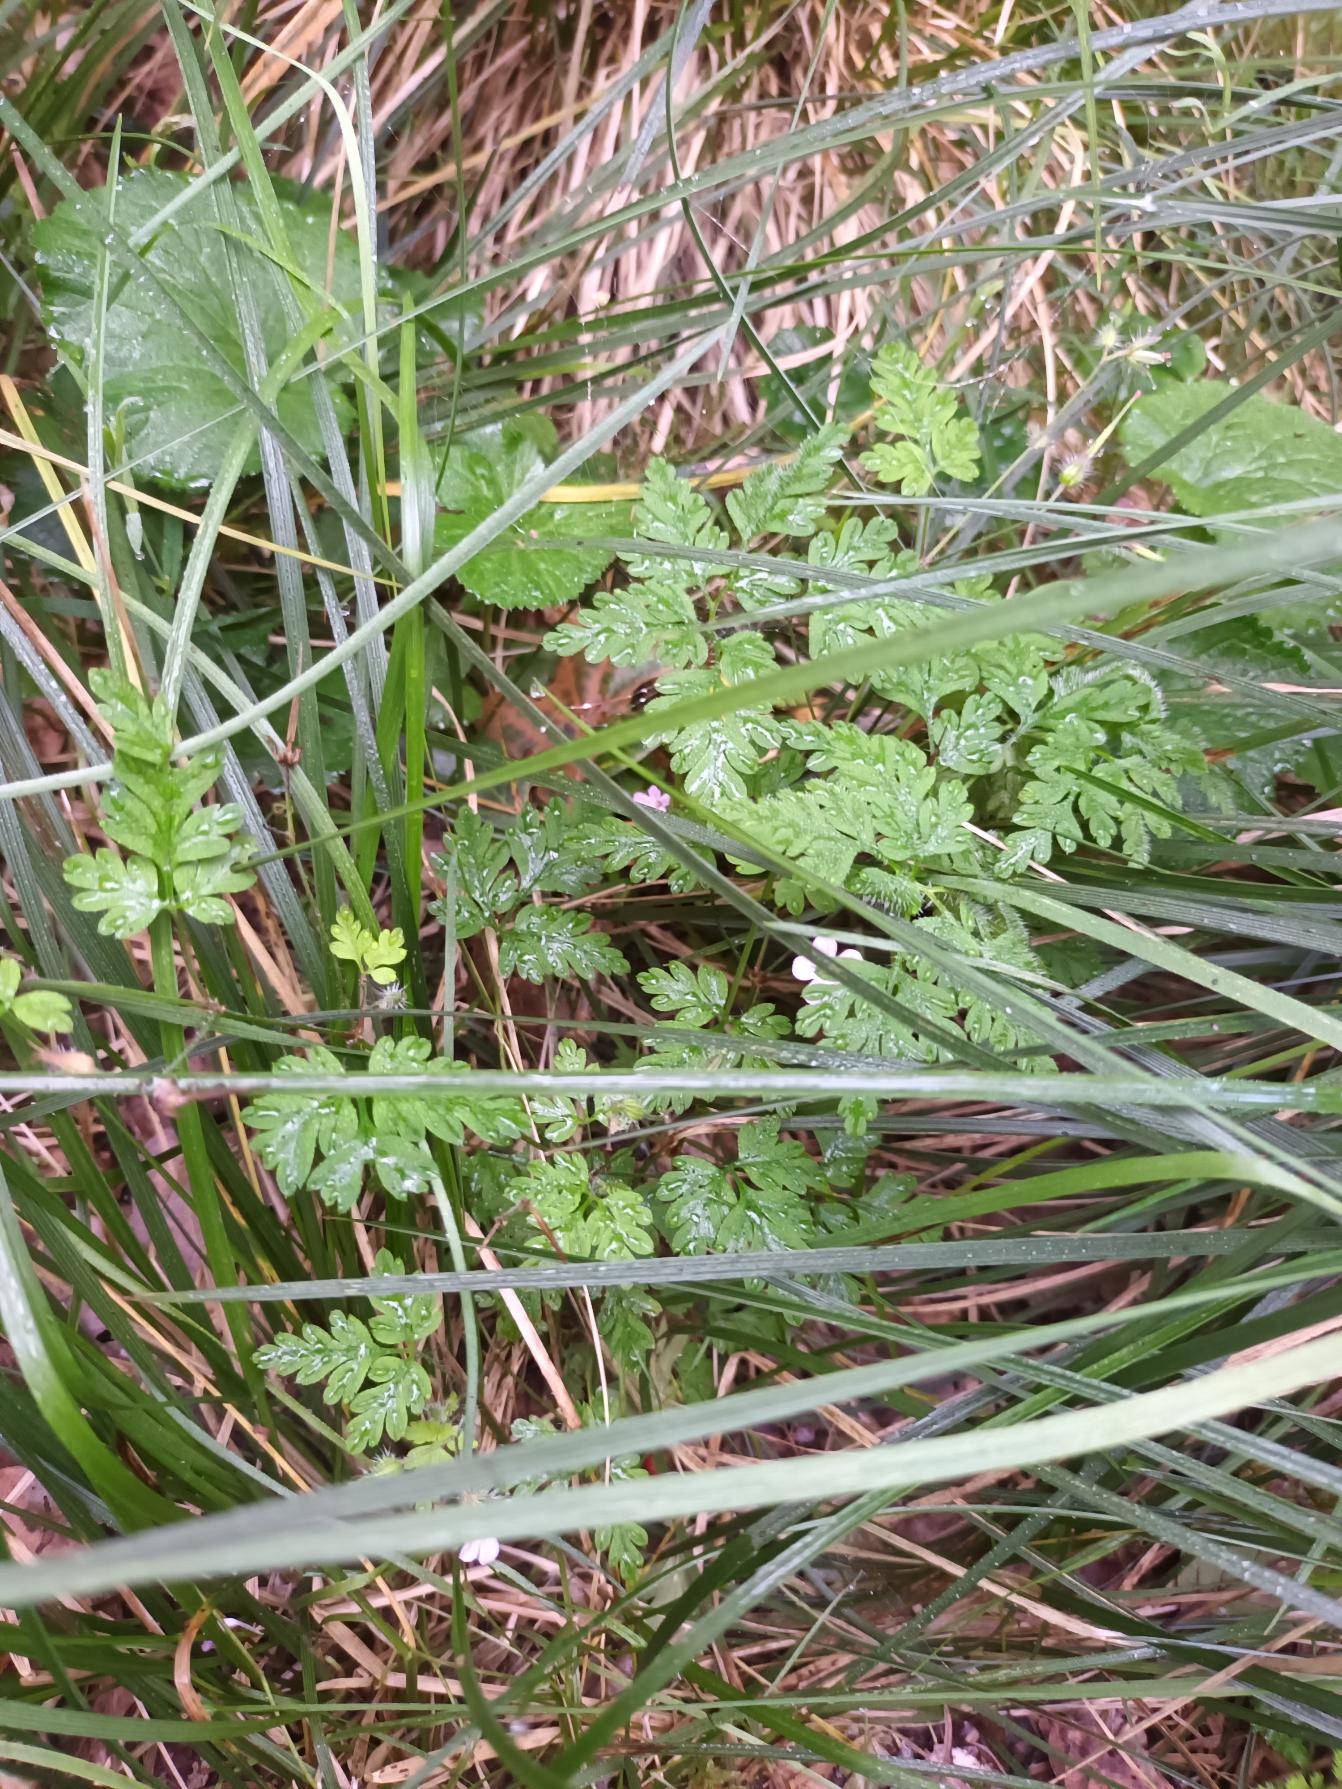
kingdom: Plantae
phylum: Tracheophyta
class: Magnoliopsida
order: Geraniales
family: Geraniaceae
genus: Geranium
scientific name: Geranium robertianum
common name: Stinkende storkenæb
